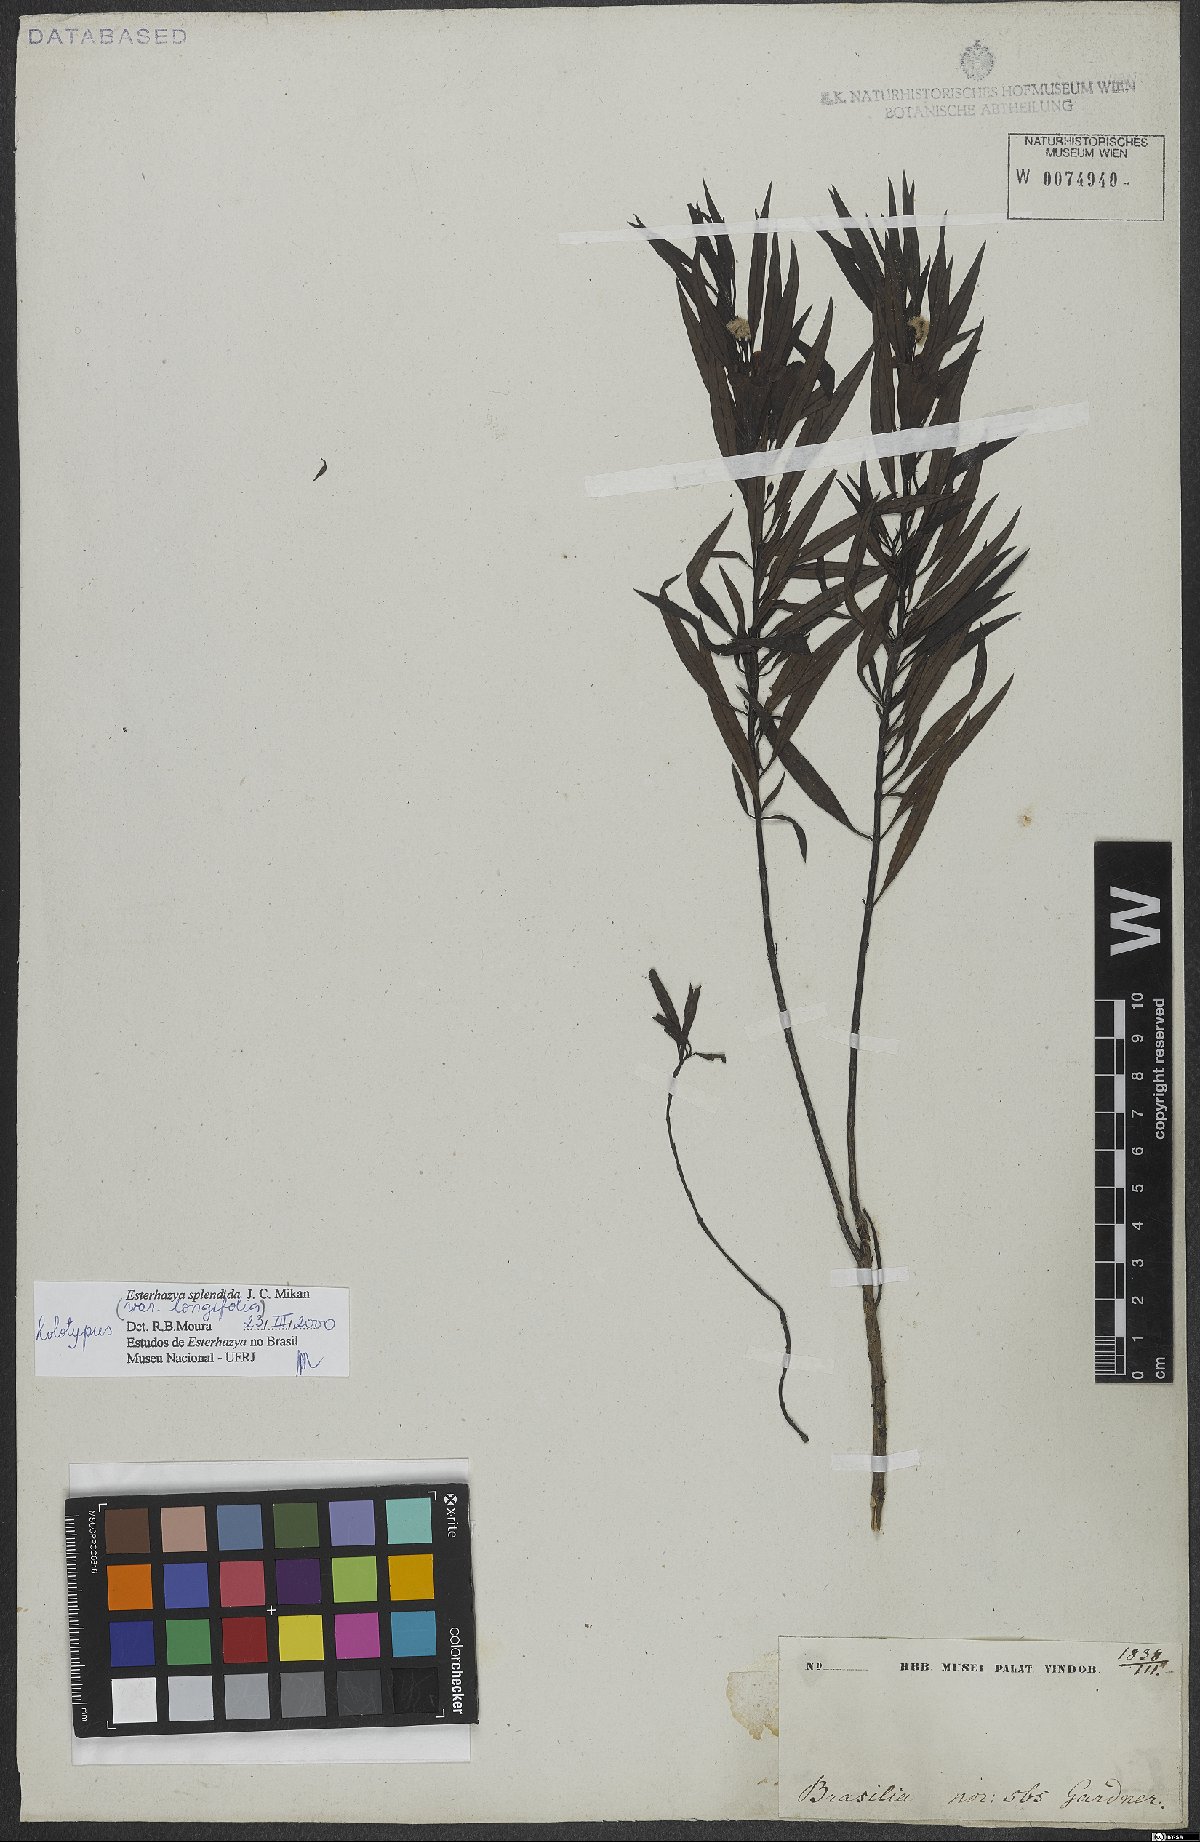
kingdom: Plantae
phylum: Tracheophyta
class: Magnoliopsida
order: Lamiales
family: Orobanchaceae
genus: Esterhazya
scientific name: Esterhazya splendida
